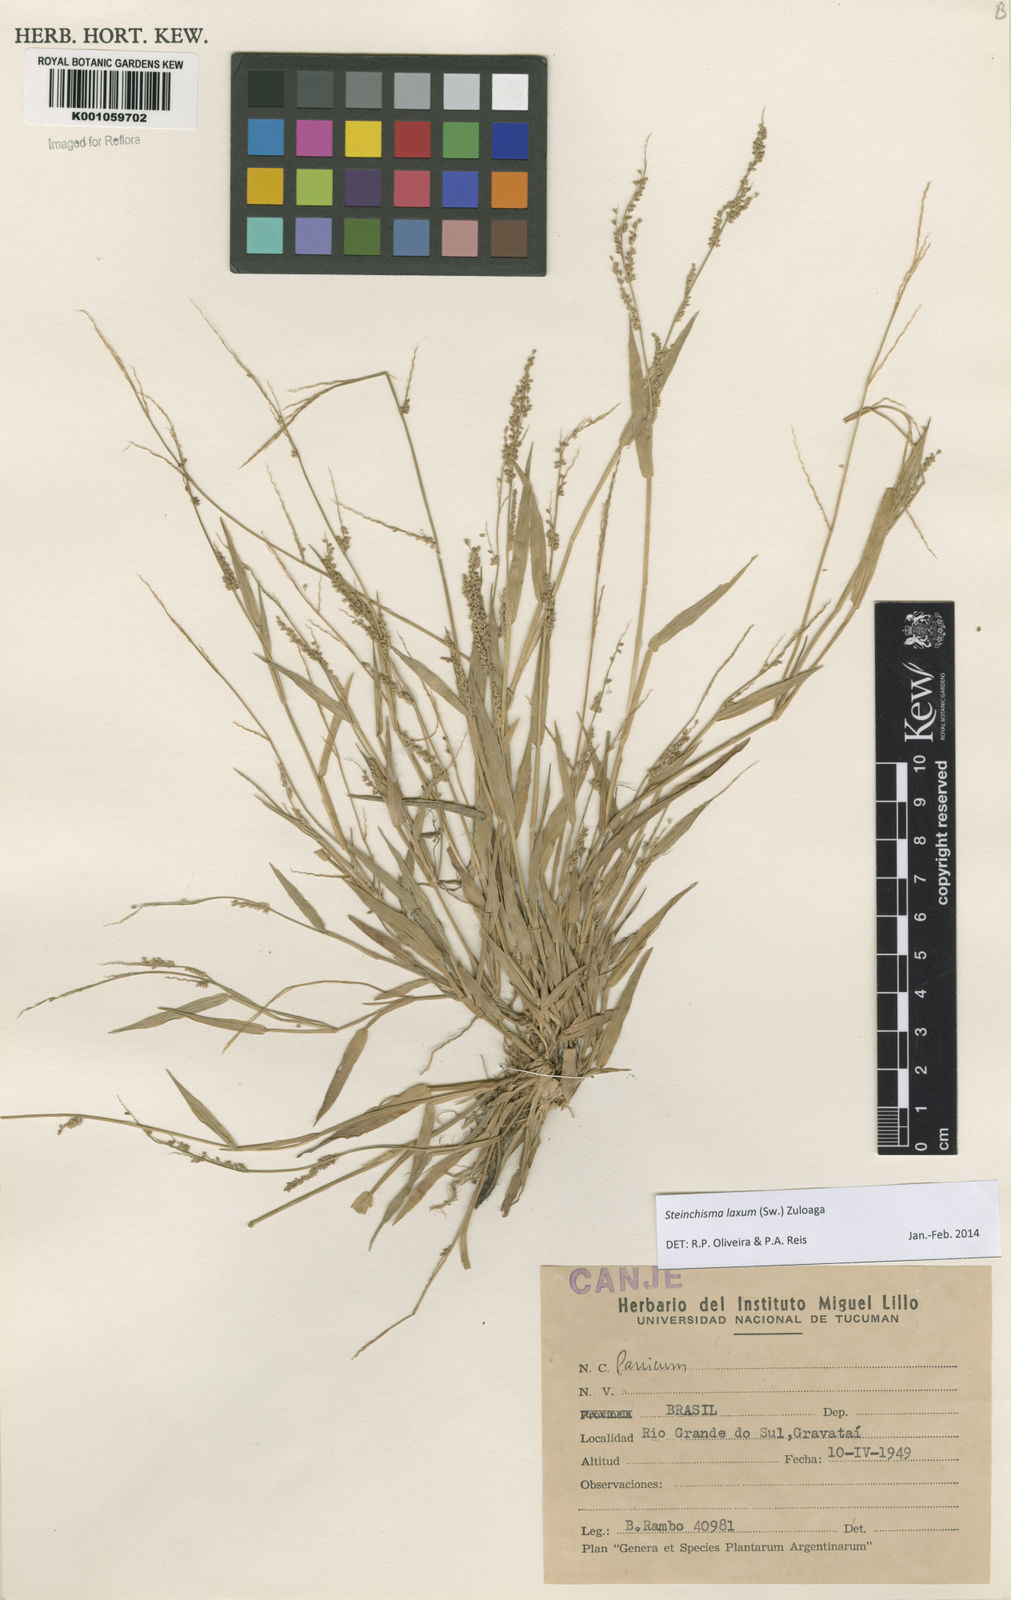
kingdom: Plantae
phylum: Tracheophyta
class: Liliopsida
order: Poales
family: Poaceae
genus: Steinchisma
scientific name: Steinchisma laxum
